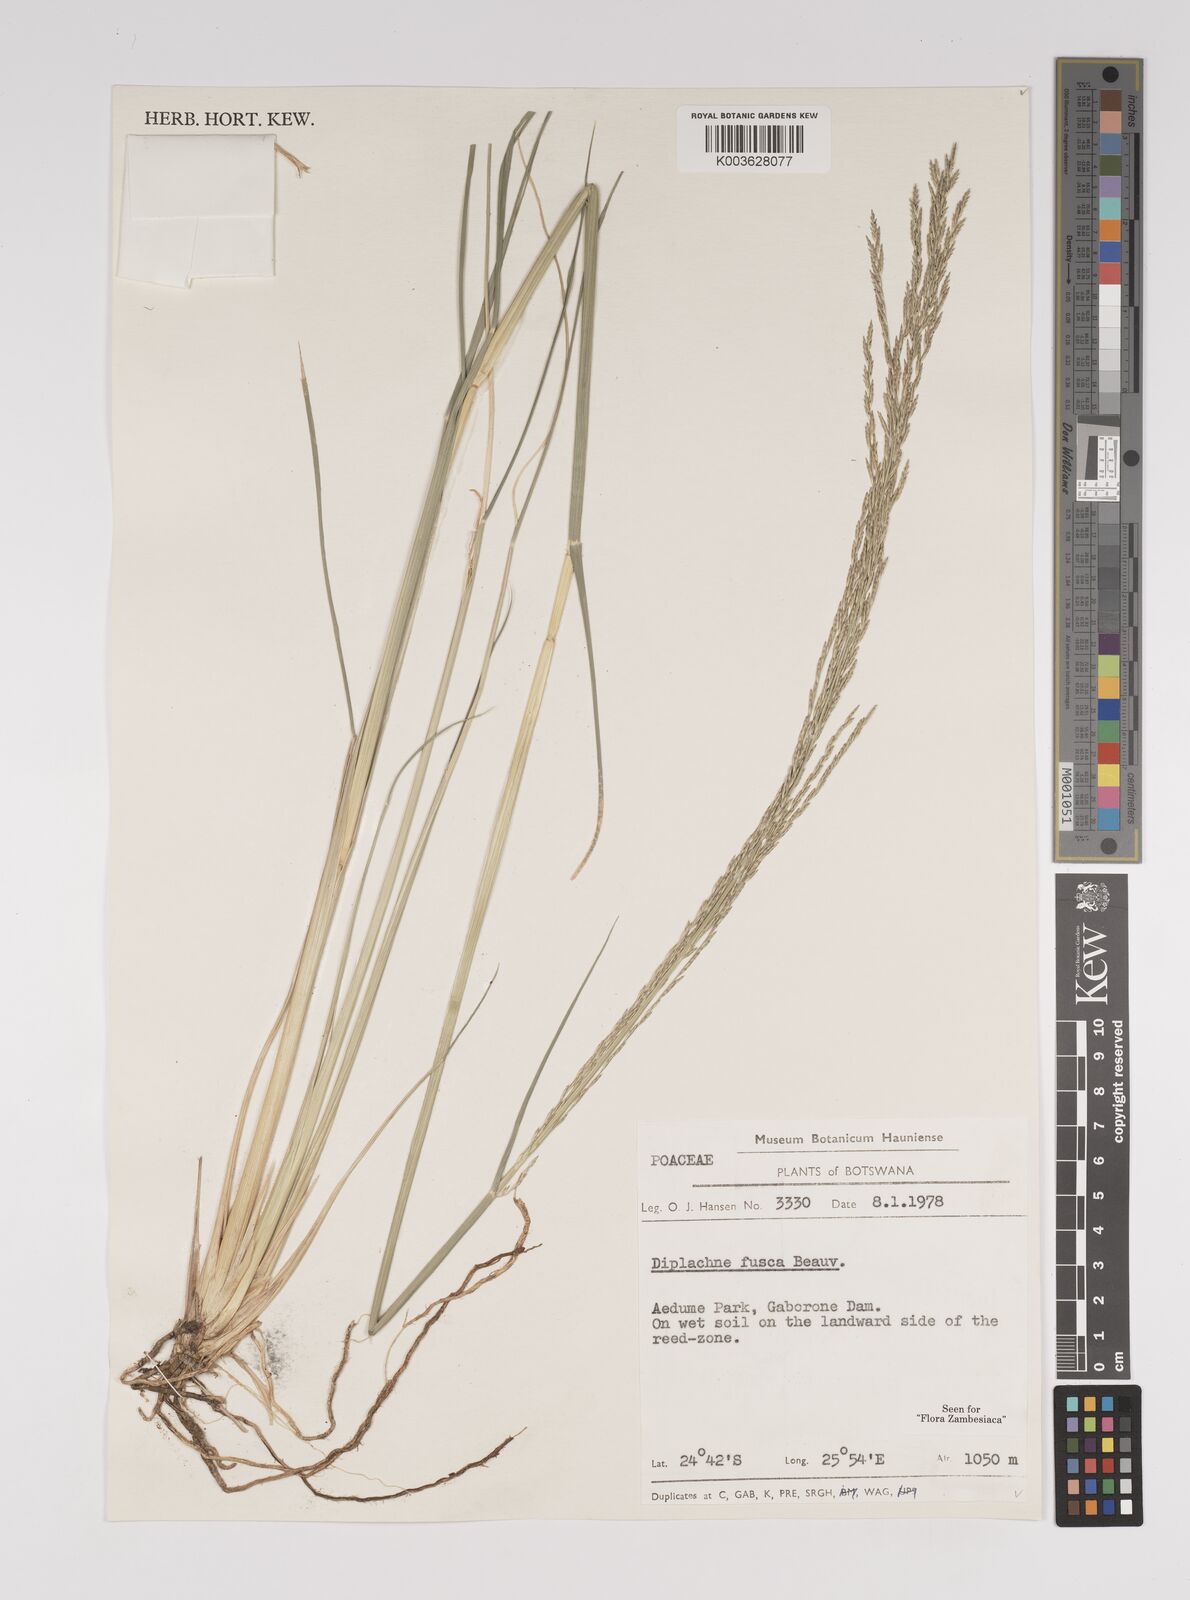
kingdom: Plantae
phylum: Tracheophyta
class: Liliopsida
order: Poales
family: Poaceae
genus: Diplachne
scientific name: Diplachne fusca
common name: Brown beetle grass
